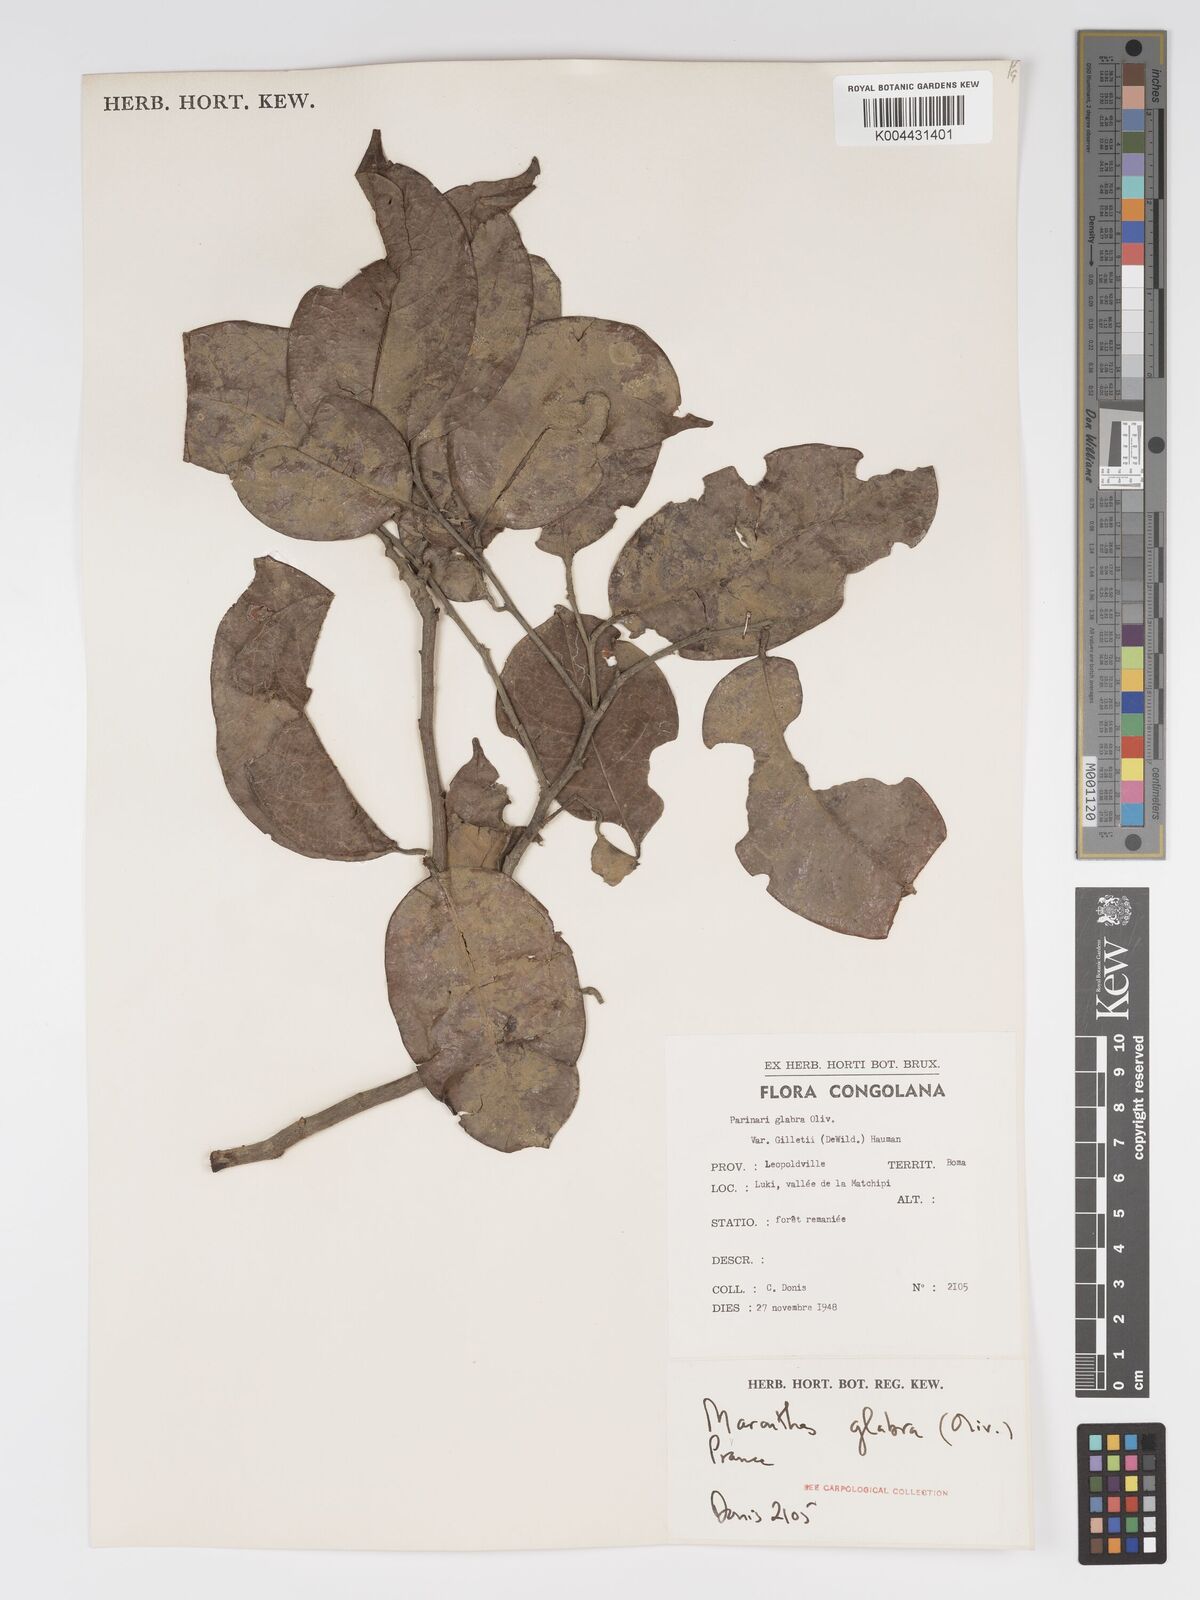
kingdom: Plantae
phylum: Tracheophyta
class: Magnoliopsida
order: Malpighiales
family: Chrysobalanaceae
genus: Maranthes
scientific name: Maranthes glabra
